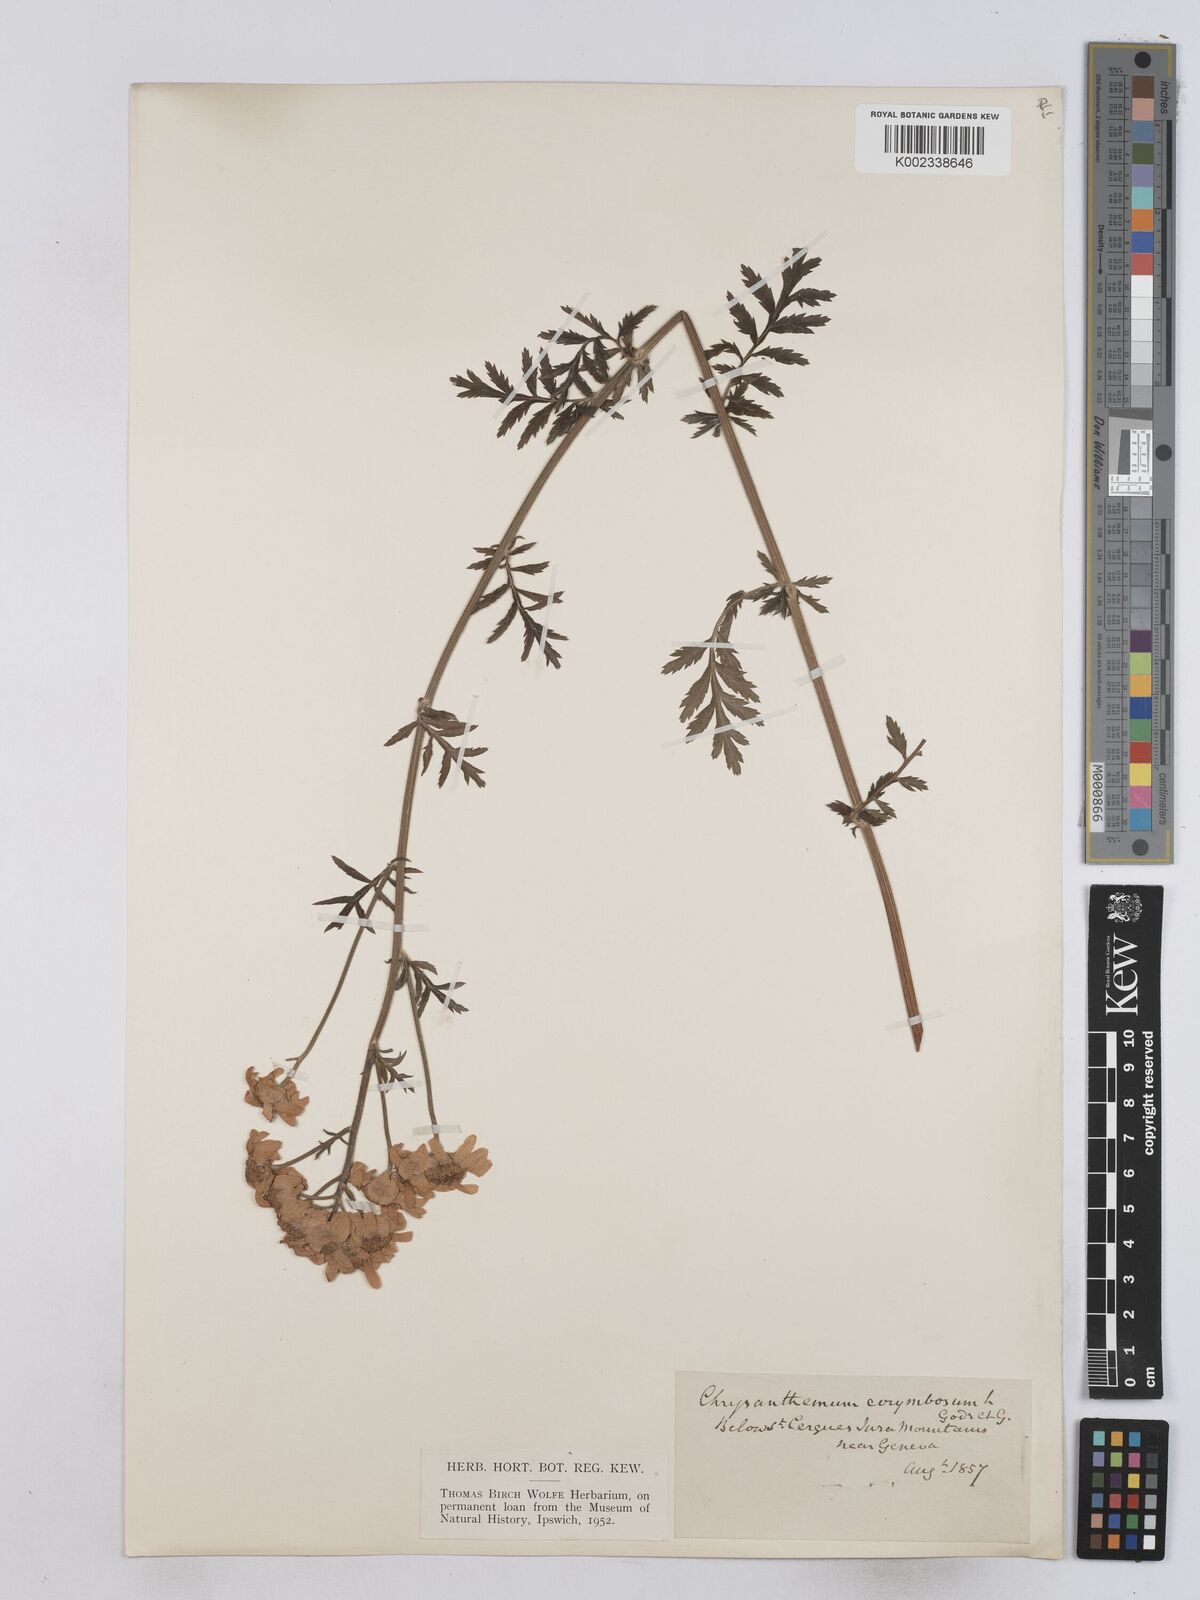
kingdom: Plantae
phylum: Tracheophyta
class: Magnoliopsida
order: Asterales
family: Asteraceae
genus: Tanacetum
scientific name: Tanacetum corymbosum
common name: Scentless feverfew
